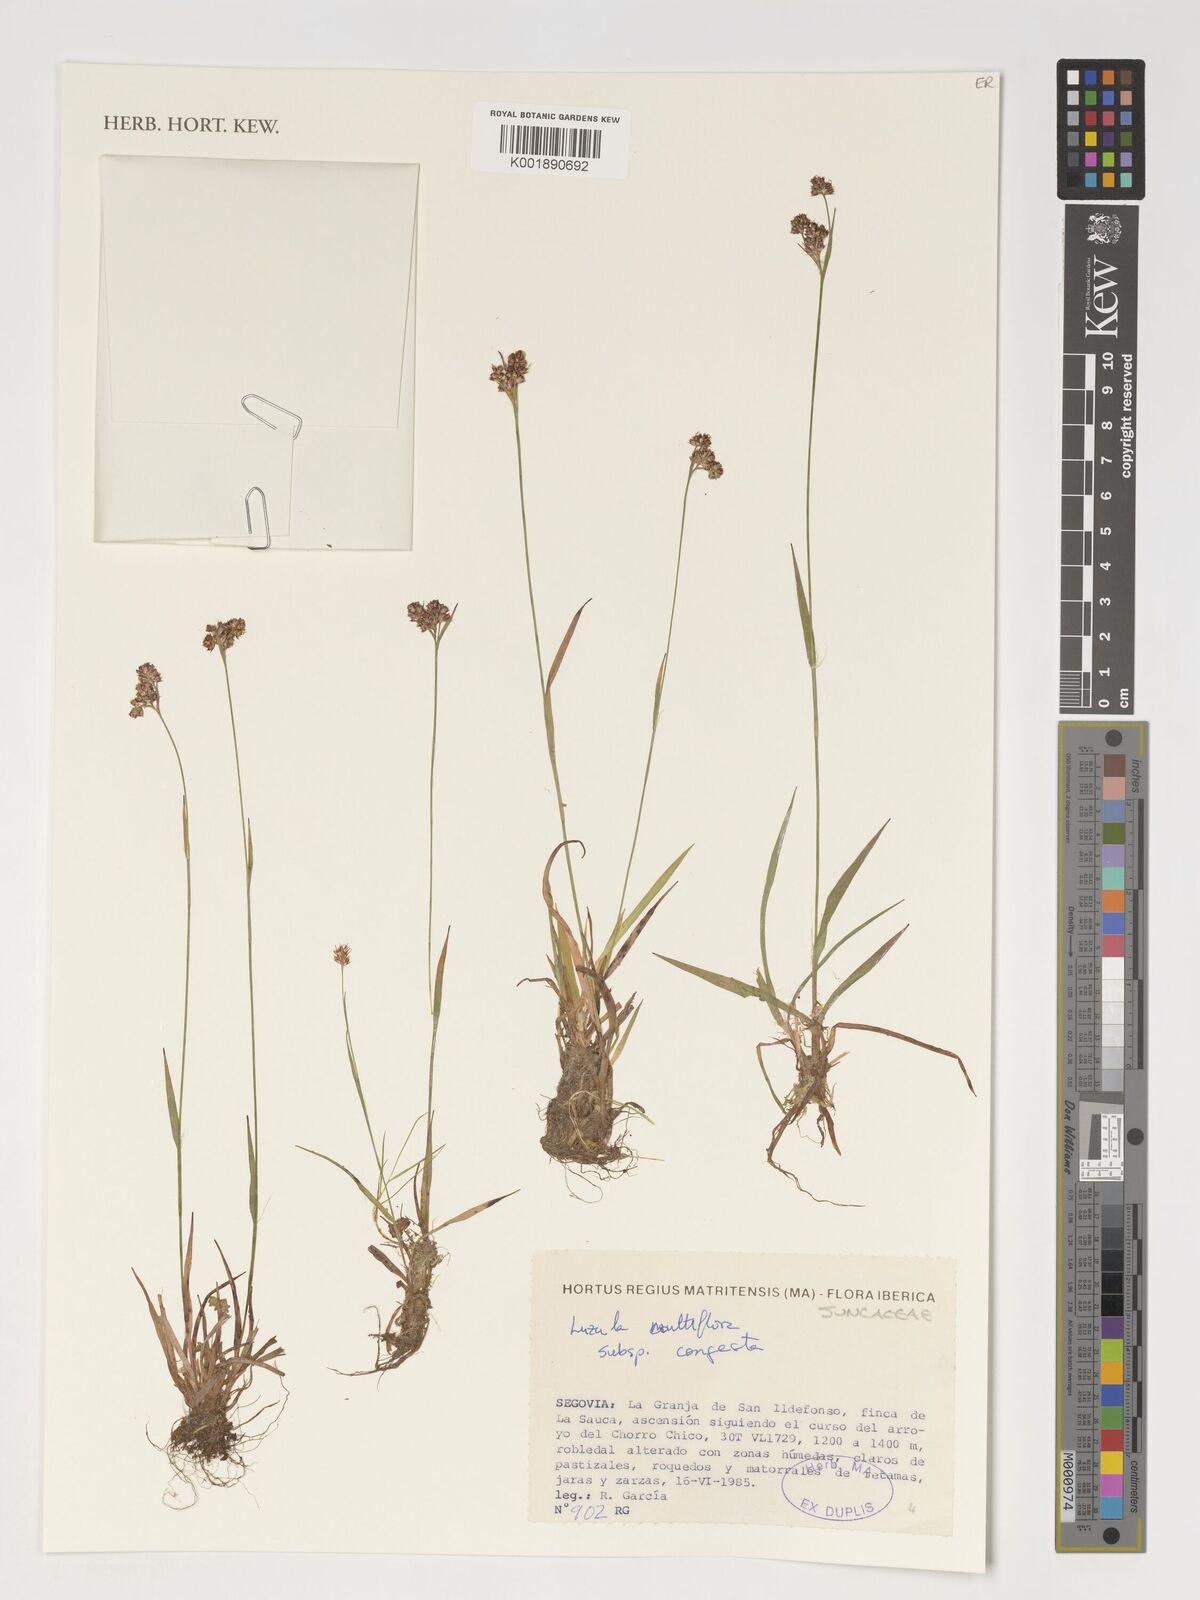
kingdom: Plantae
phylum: Tracheophyta
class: Liliopsida
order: Poales
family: Juncaceae
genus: Luzula
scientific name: Luzula congesta
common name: Heath woodrush
